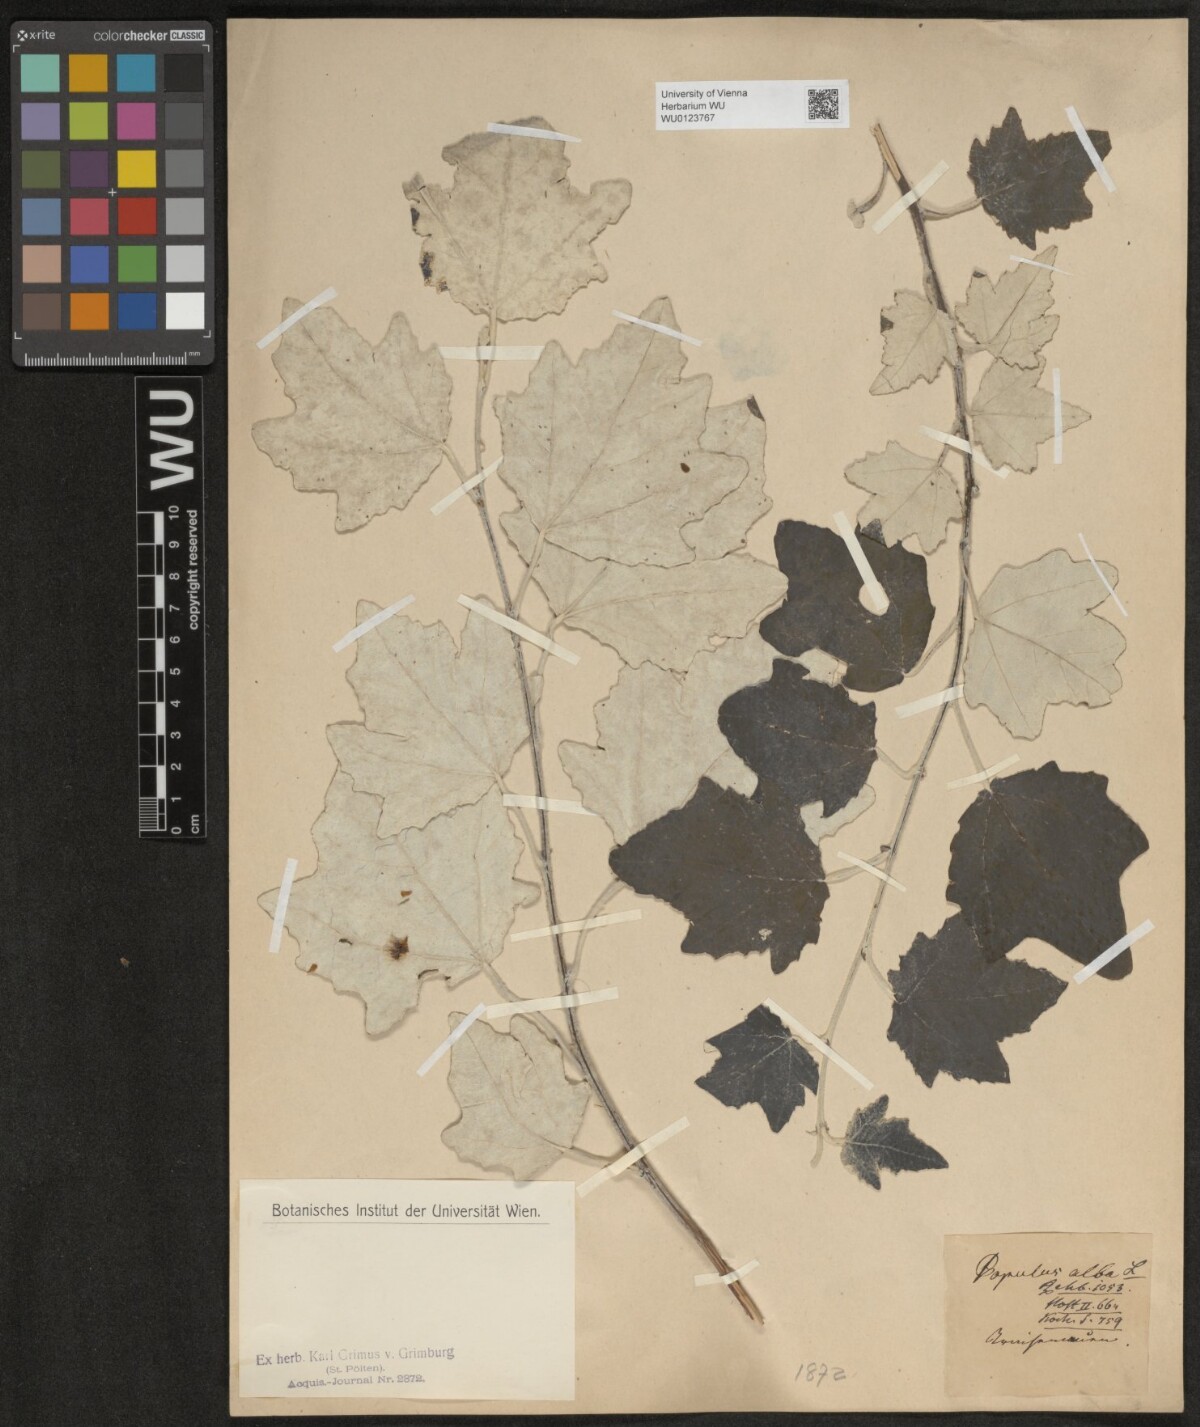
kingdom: Plantae
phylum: Tracheophyta
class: Magnoliopsida
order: Malpighiales
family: Salicaceae
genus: Populus
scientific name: Populus alba
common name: White poplar
